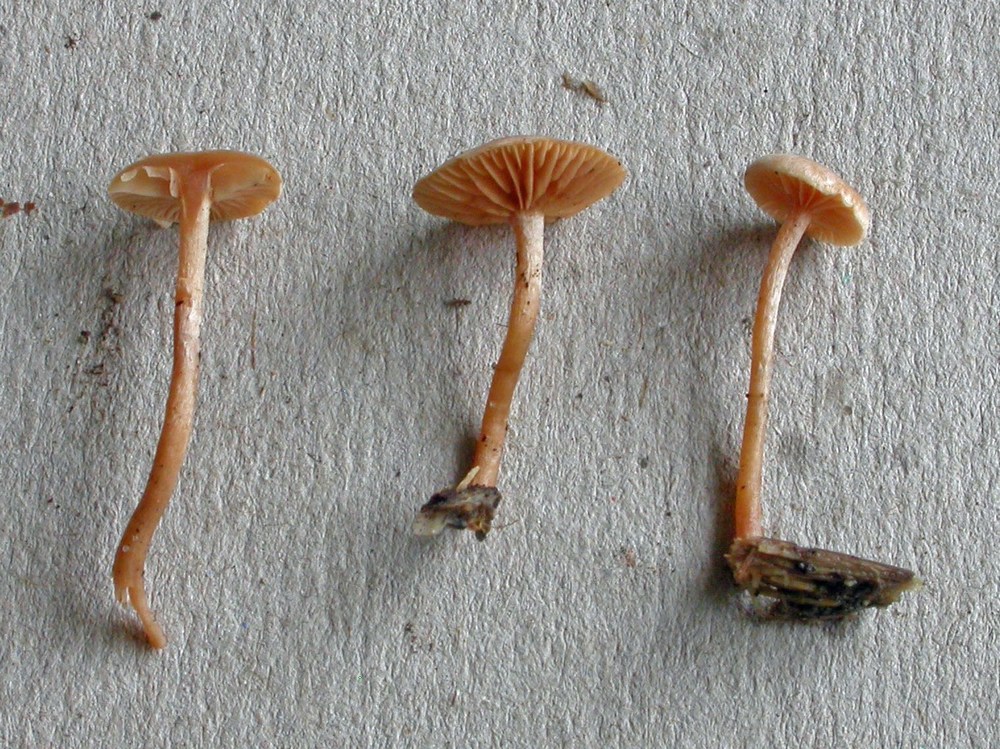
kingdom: Fungi
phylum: Basidiomycota
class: Agaricomycetes
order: Agaricales
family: Tubariaceae
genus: Tubaria
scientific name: Tubaria conspersa
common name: bleg fnughat
